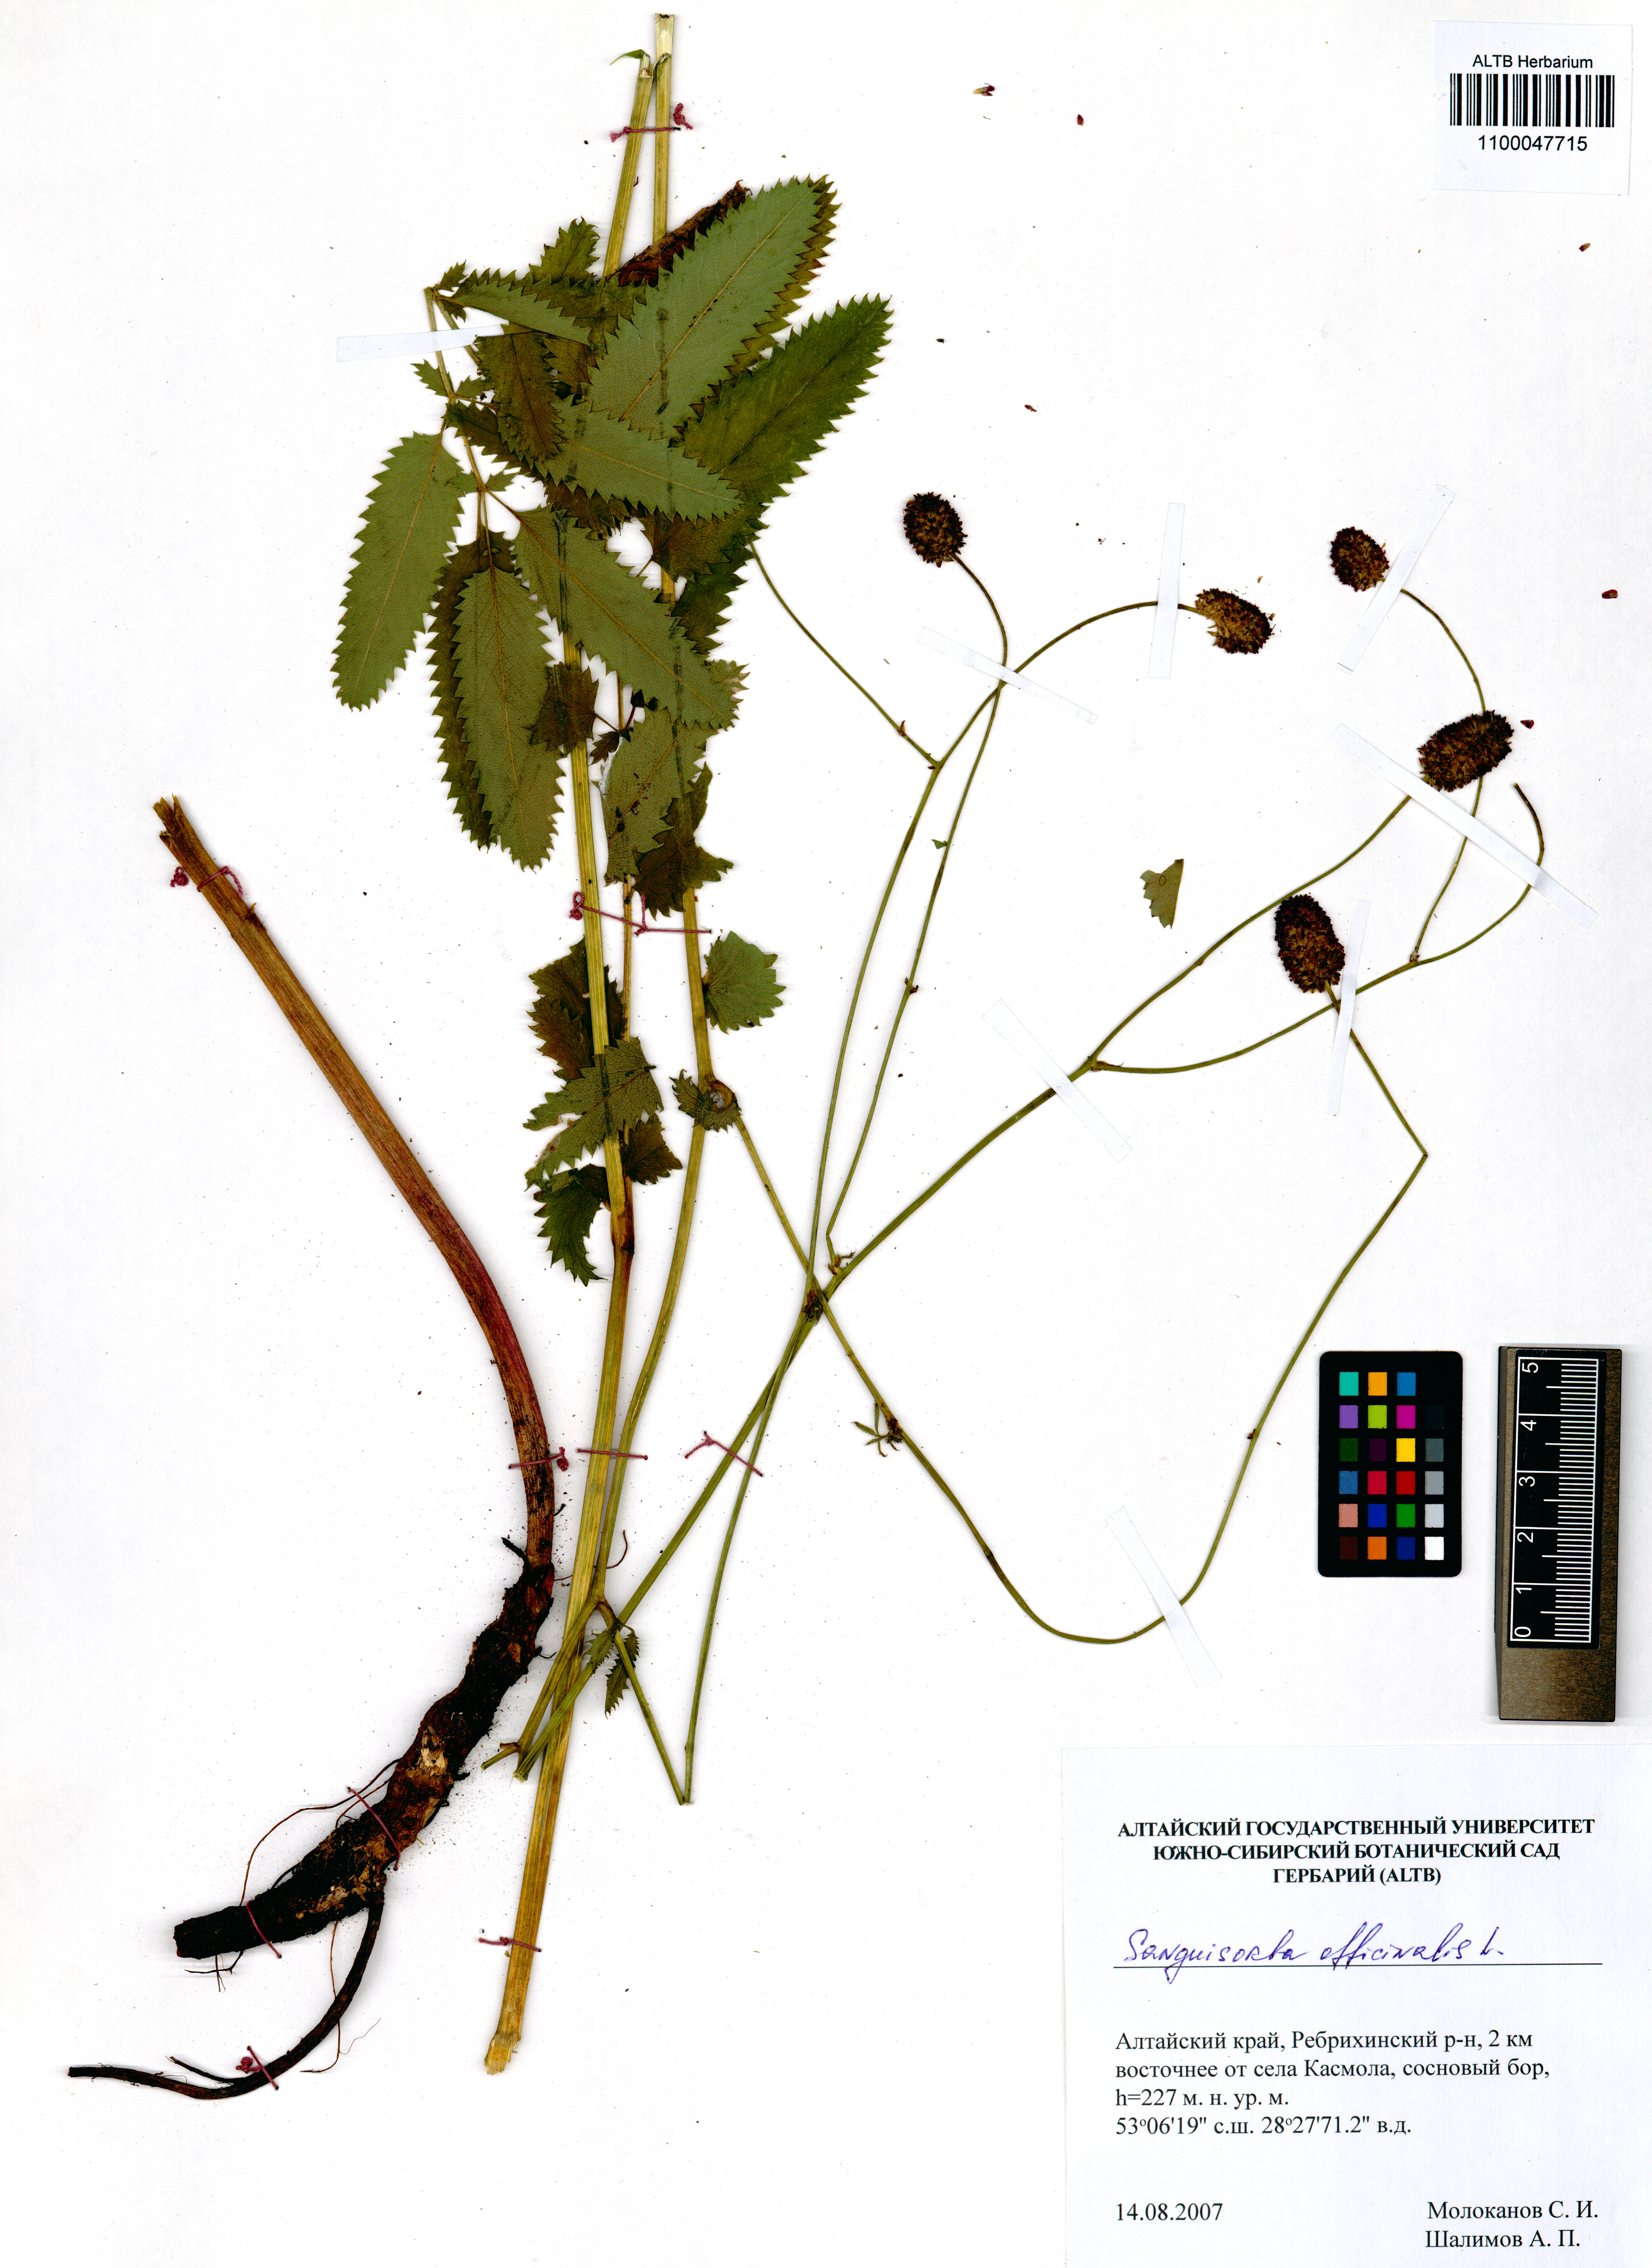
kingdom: Plantae
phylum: Tracheophyta
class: Magnoliopsida
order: Rosales
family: Rosaceae
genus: Sanguisorba
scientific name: Sanguisorba officinalis
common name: Great burnet
